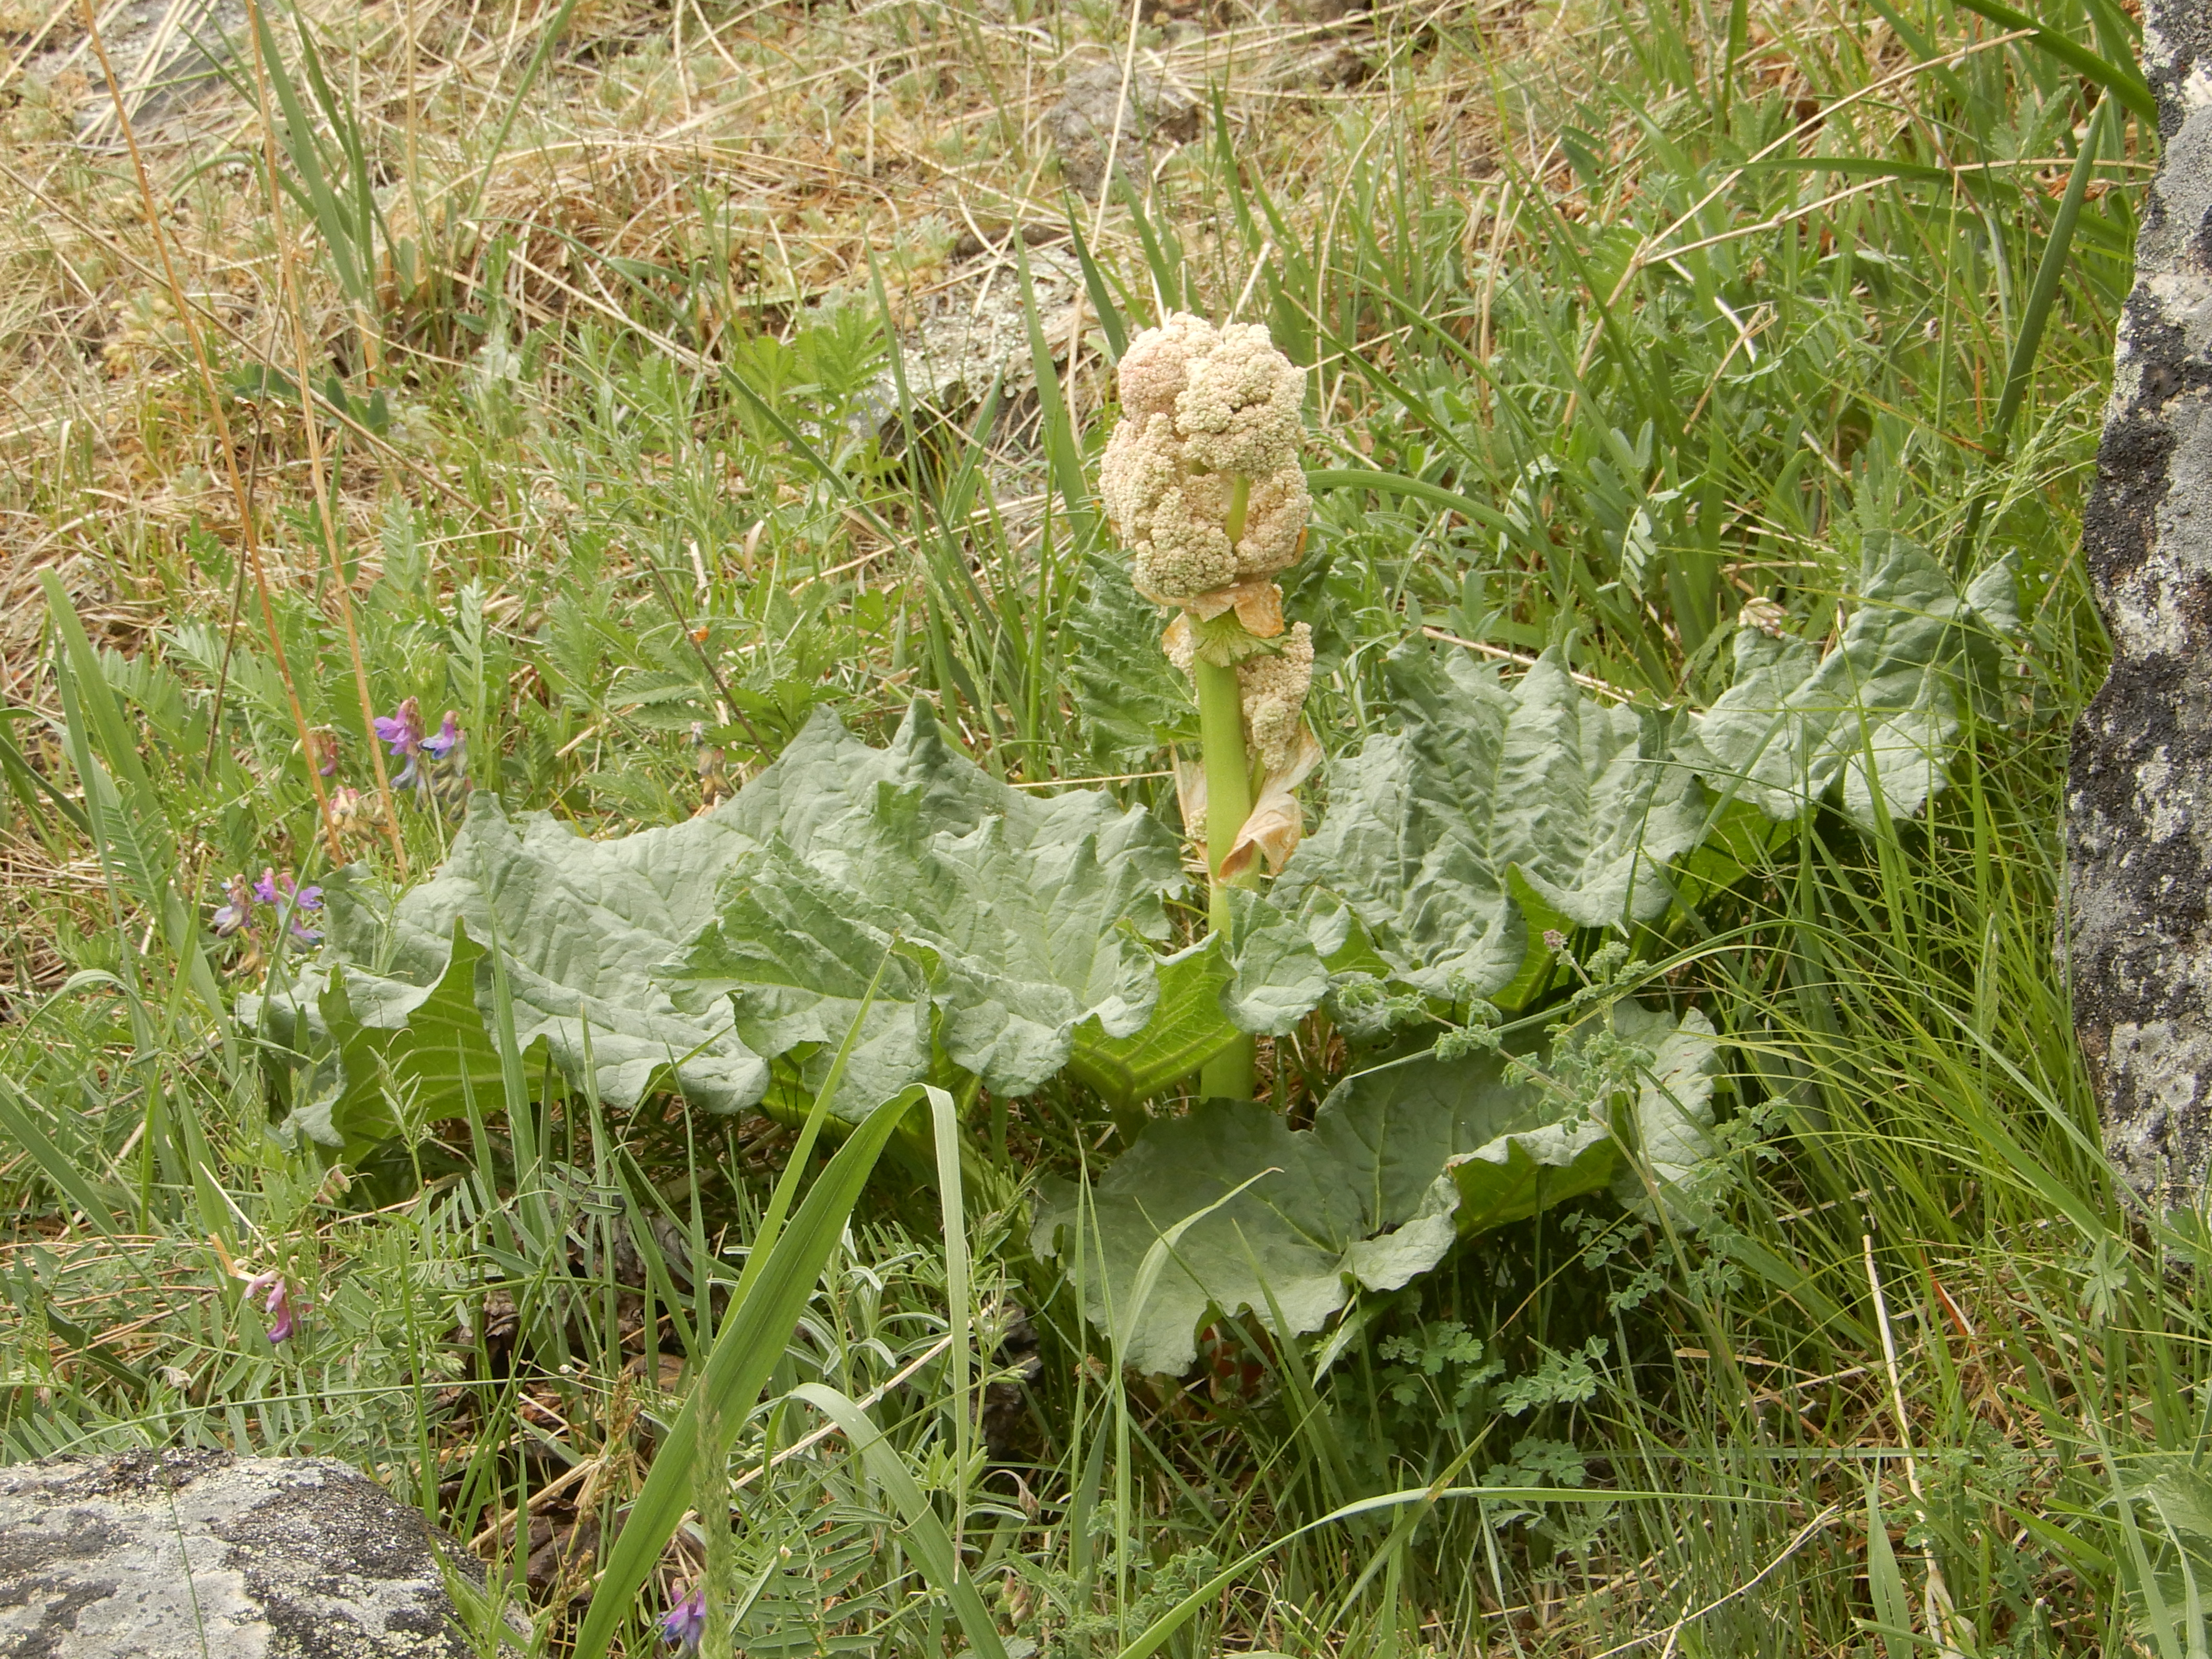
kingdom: Plantae
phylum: Tracheophyta
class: Magnoliopsida
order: Caryophyllales
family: Polygonaceae
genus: Rheum
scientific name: Rheum compactum
